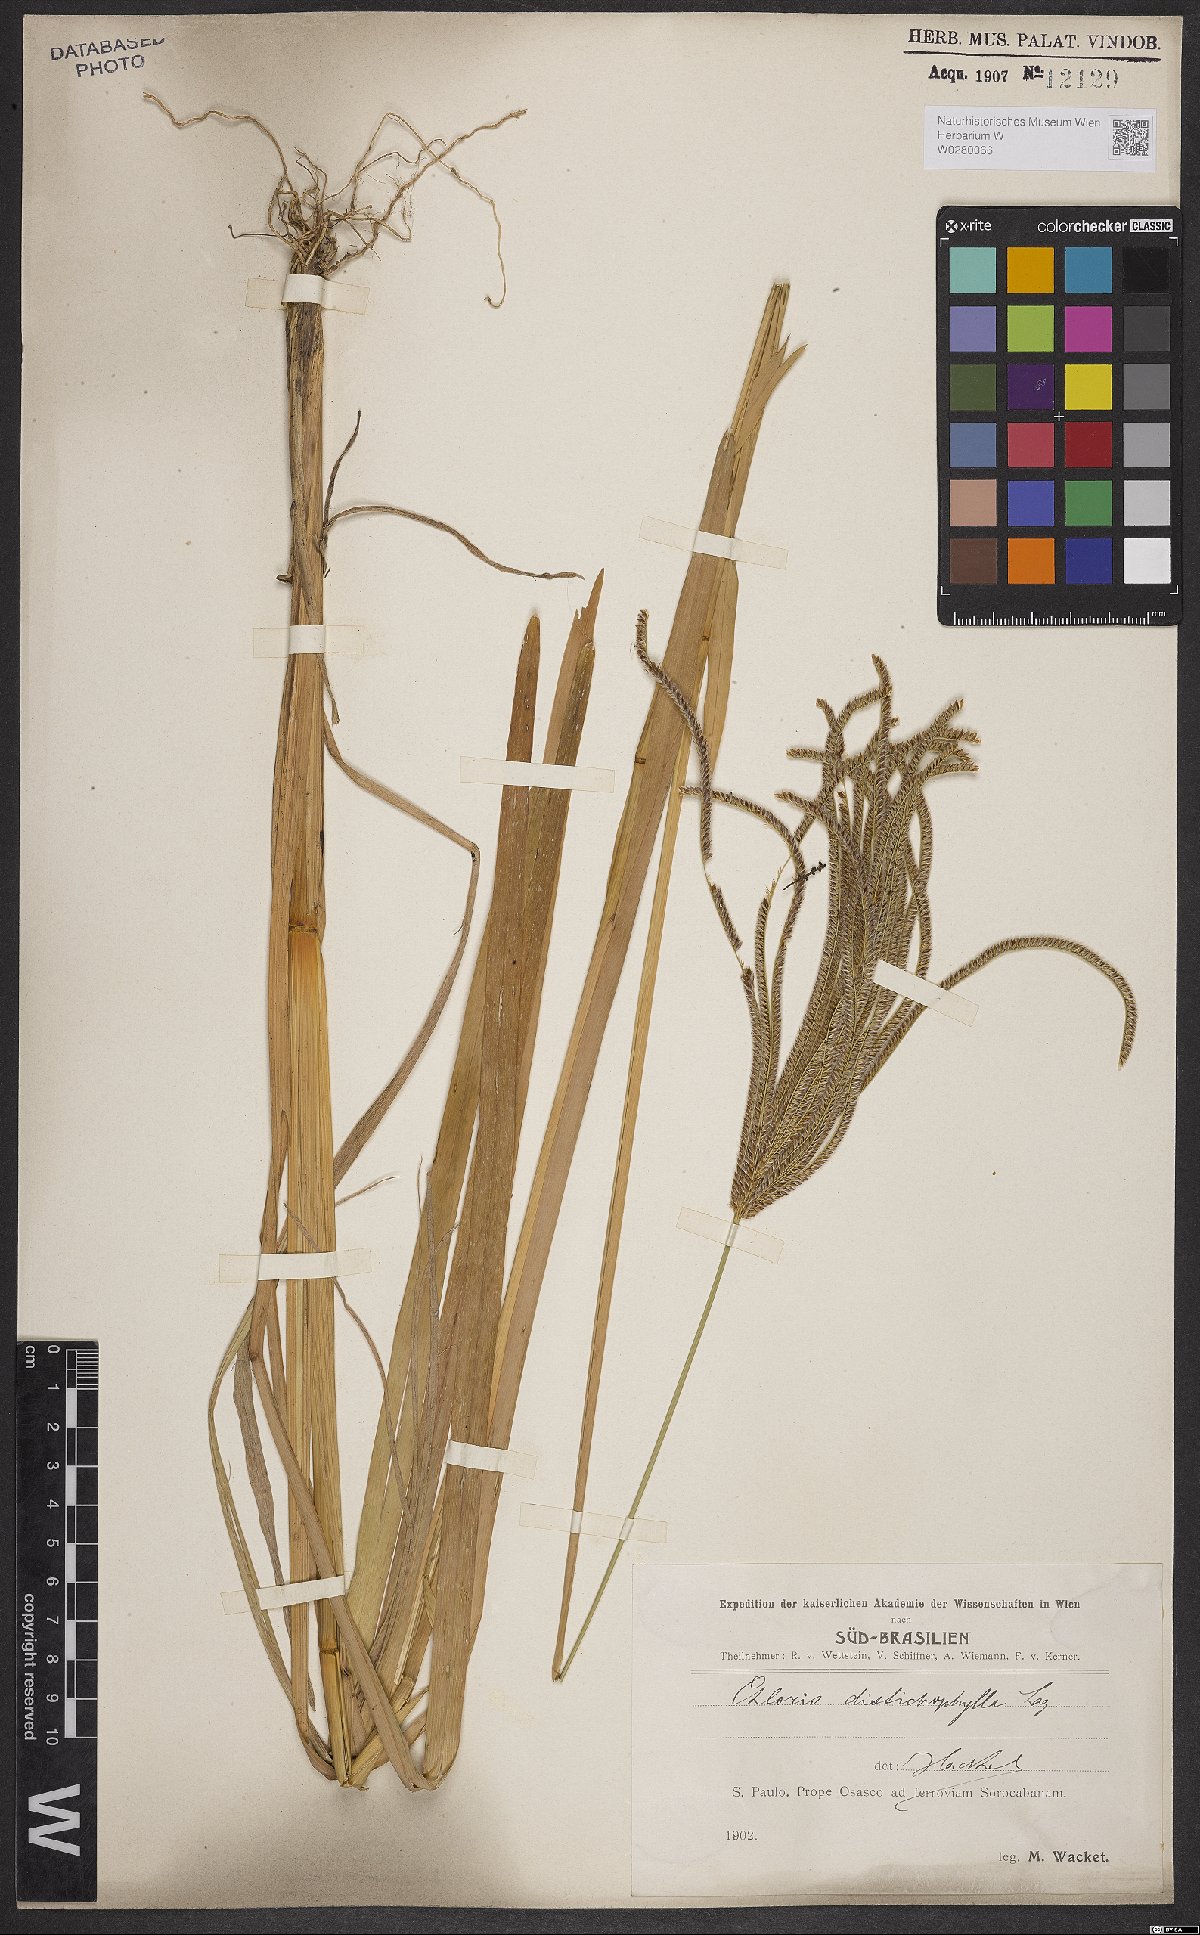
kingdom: Plantae
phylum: Tracheophyta
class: Liliopsida
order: Poales
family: Poaceae
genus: Eustachys
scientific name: Eustachys distichophylla
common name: Weeping fingergrass
